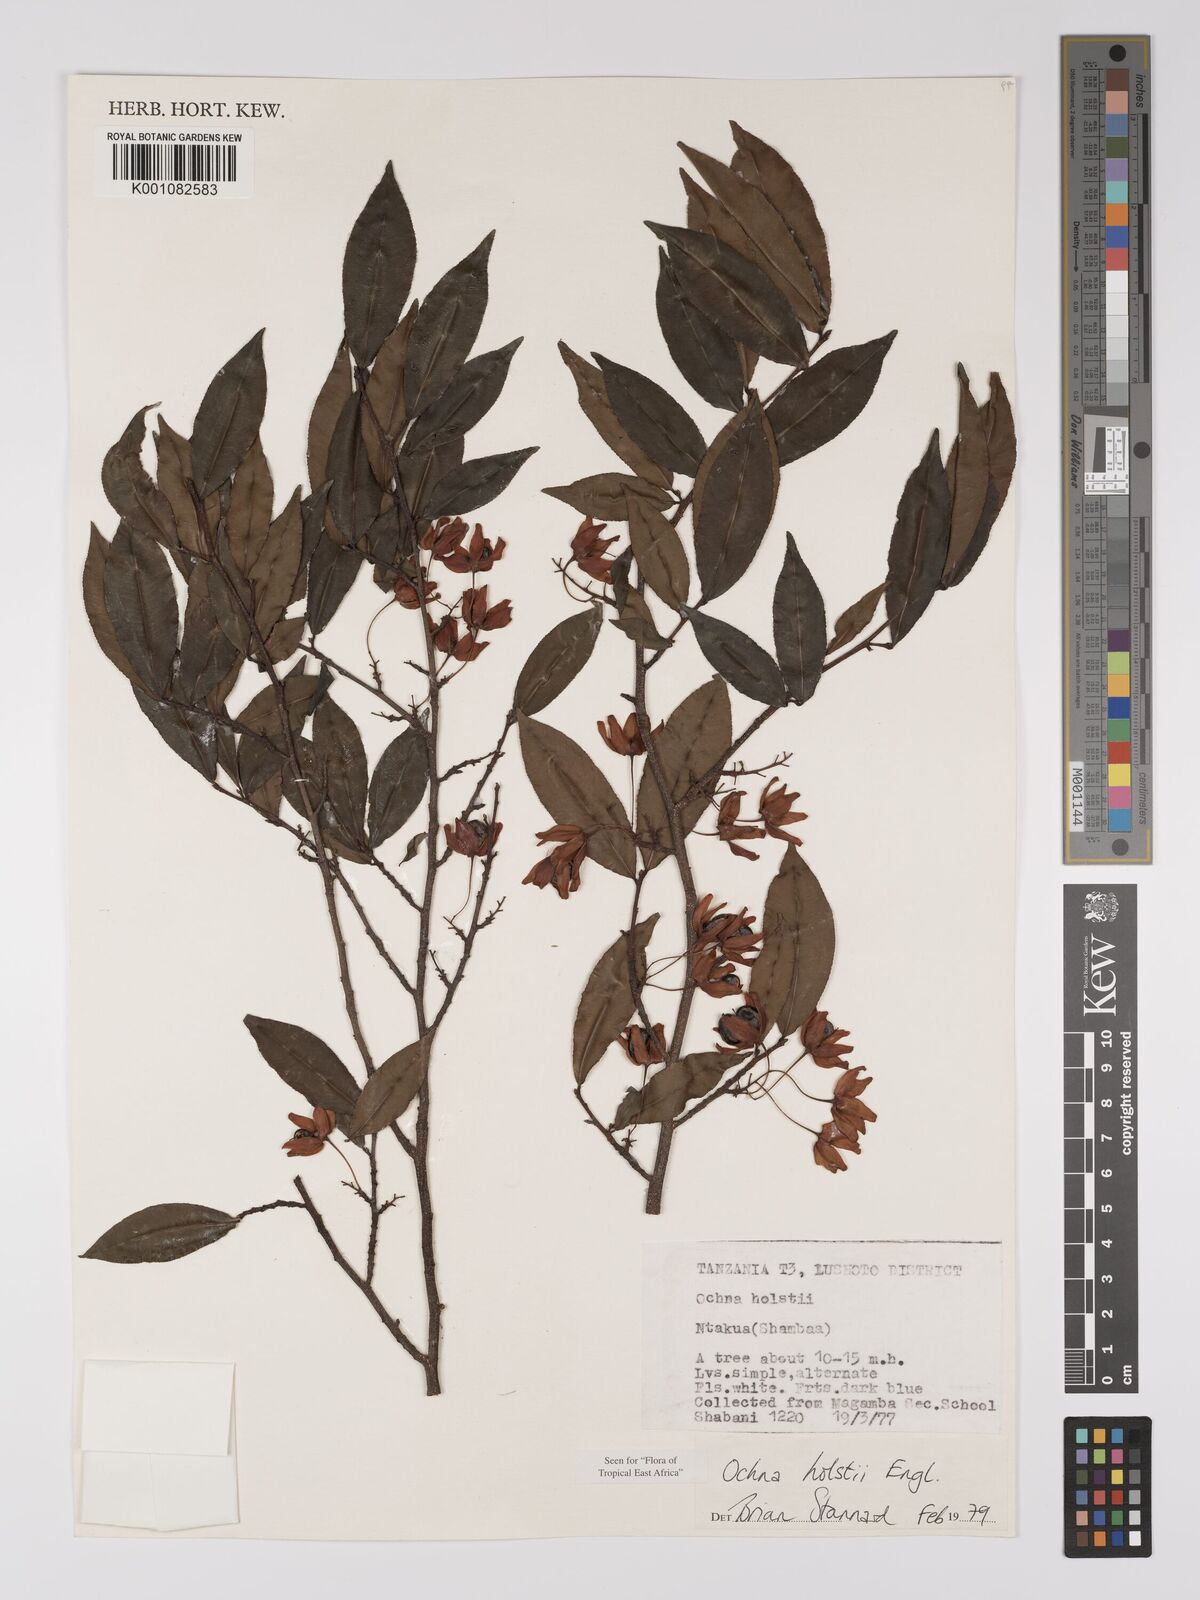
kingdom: Plantae
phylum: Tracheophyta
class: Magnoliopsida
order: Malpighiales
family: Ochnaceae
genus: Ochna
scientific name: Ochna holstii
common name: Red ironwood
